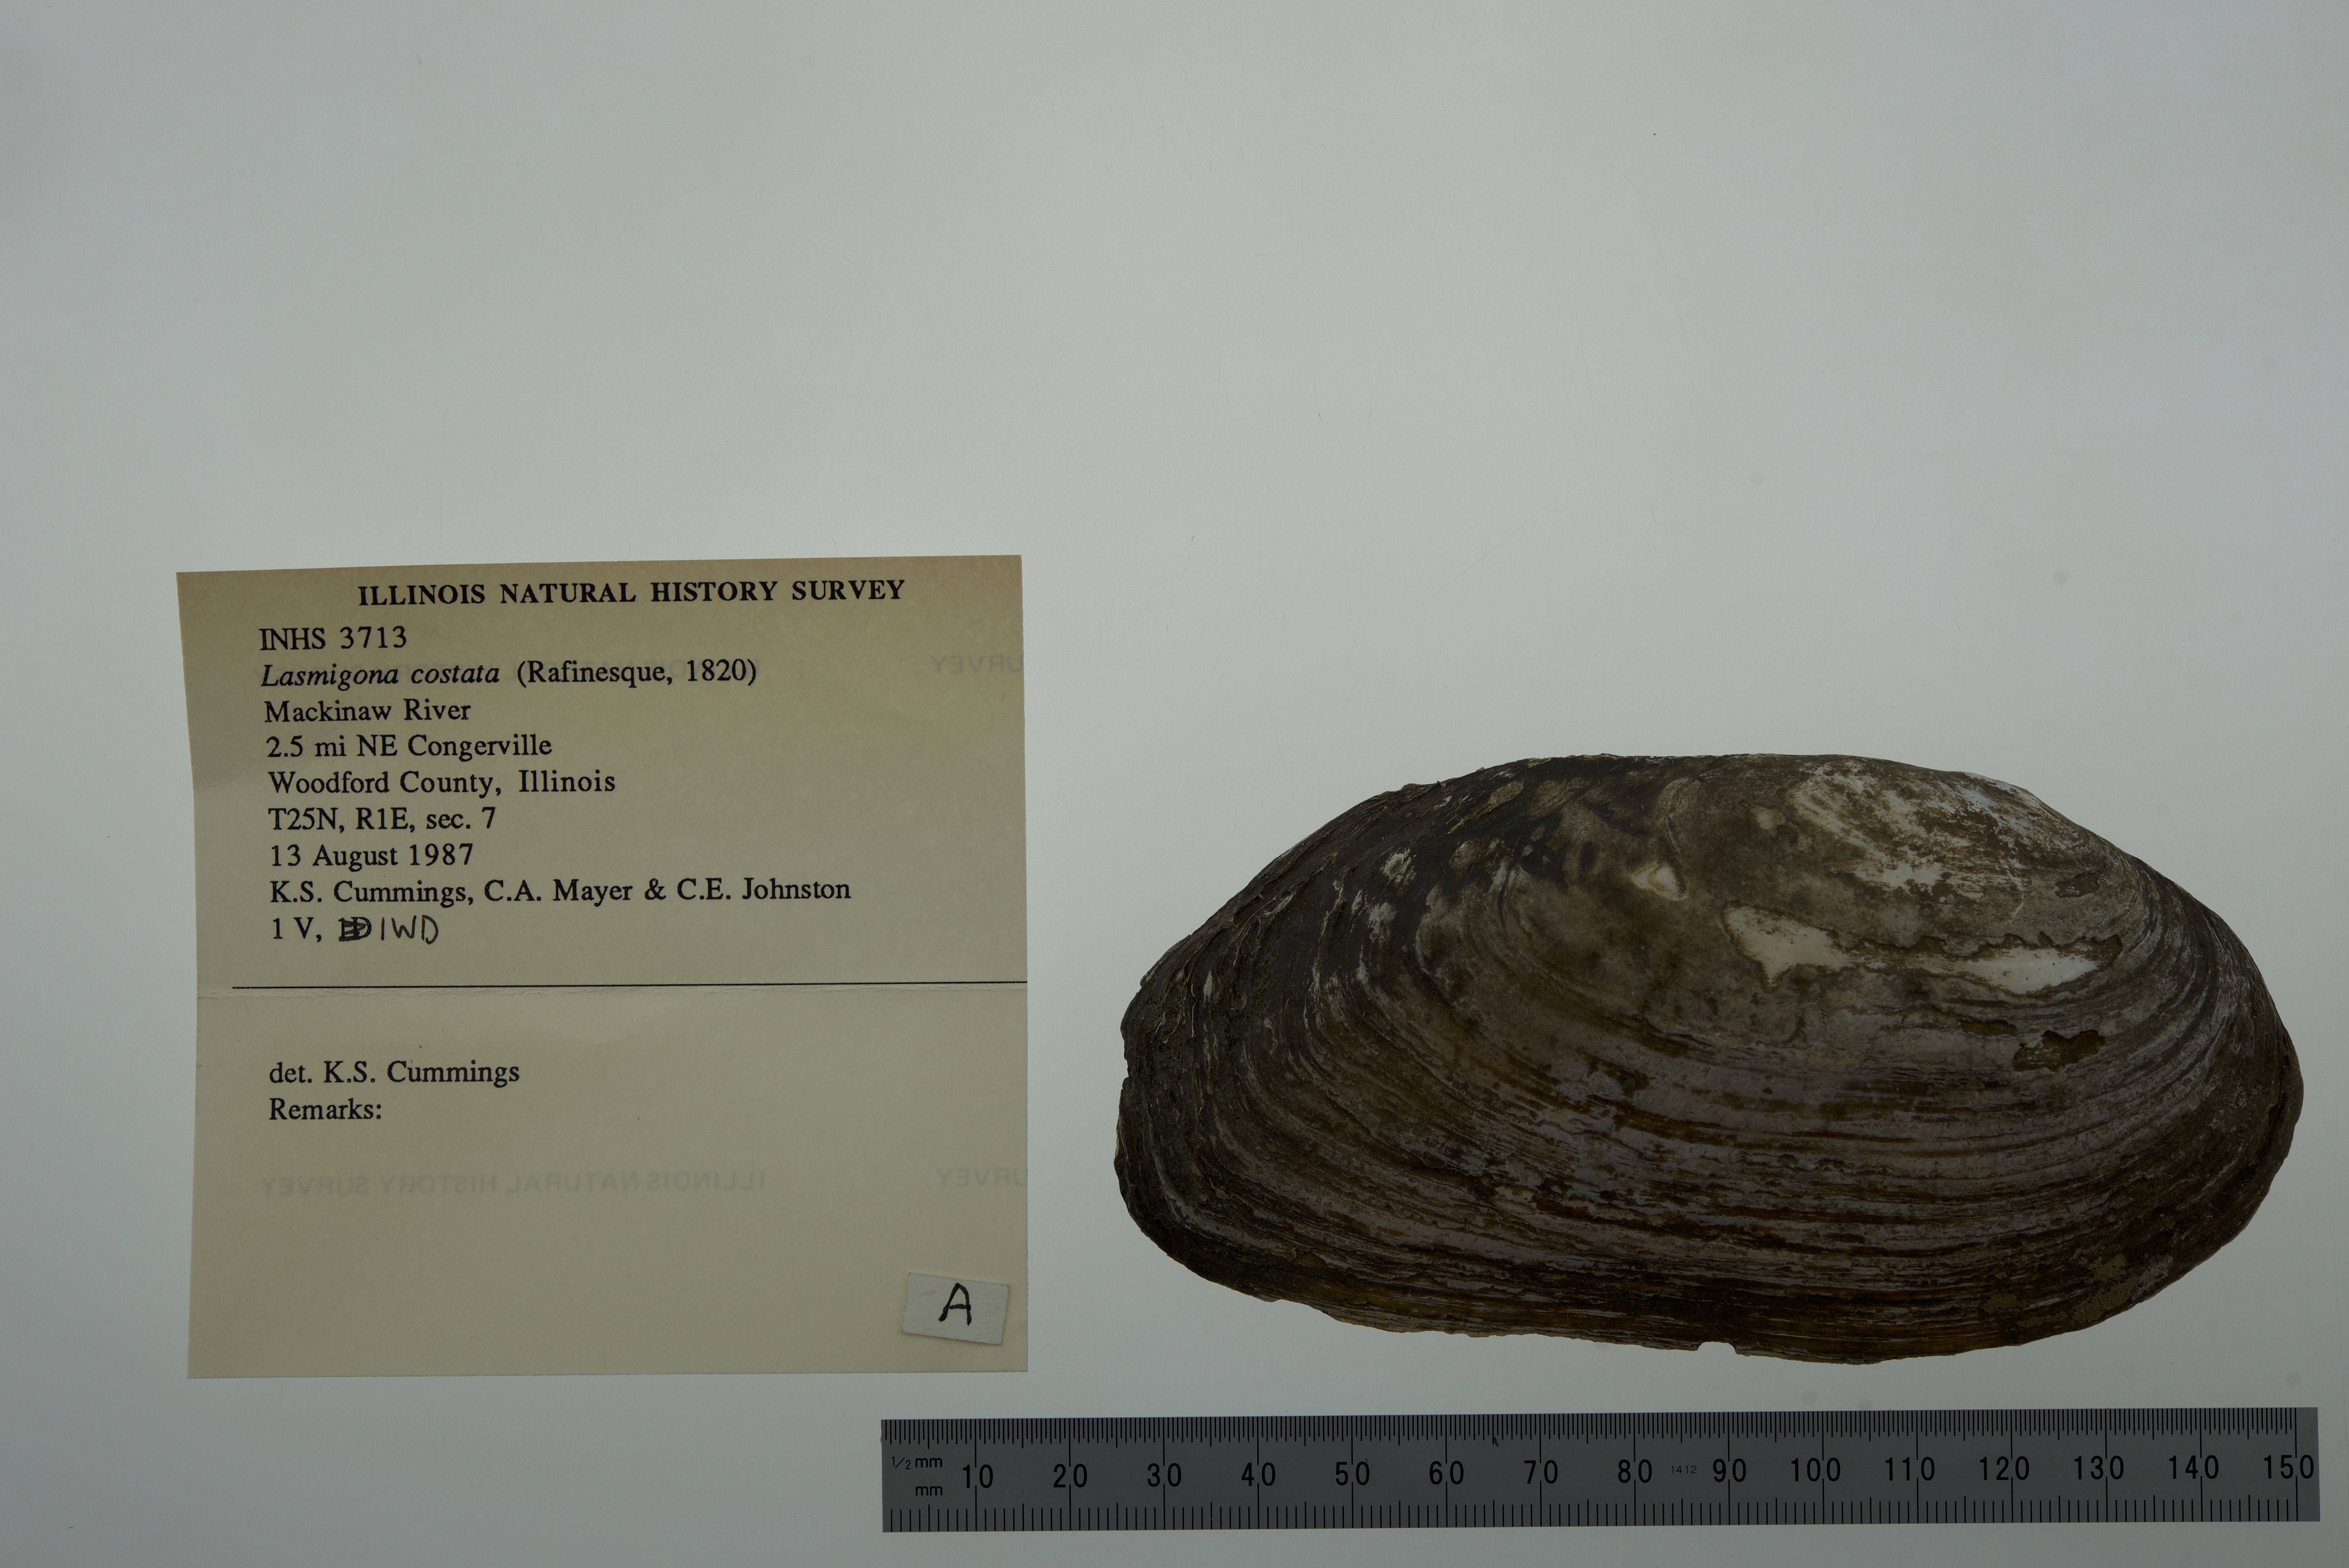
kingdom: Animalia
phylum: Mollusca
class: Bivalvia
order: Unionida
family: Unionidae
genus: Lasmigona
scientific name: Lasmigona costata
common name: Flutedshell
